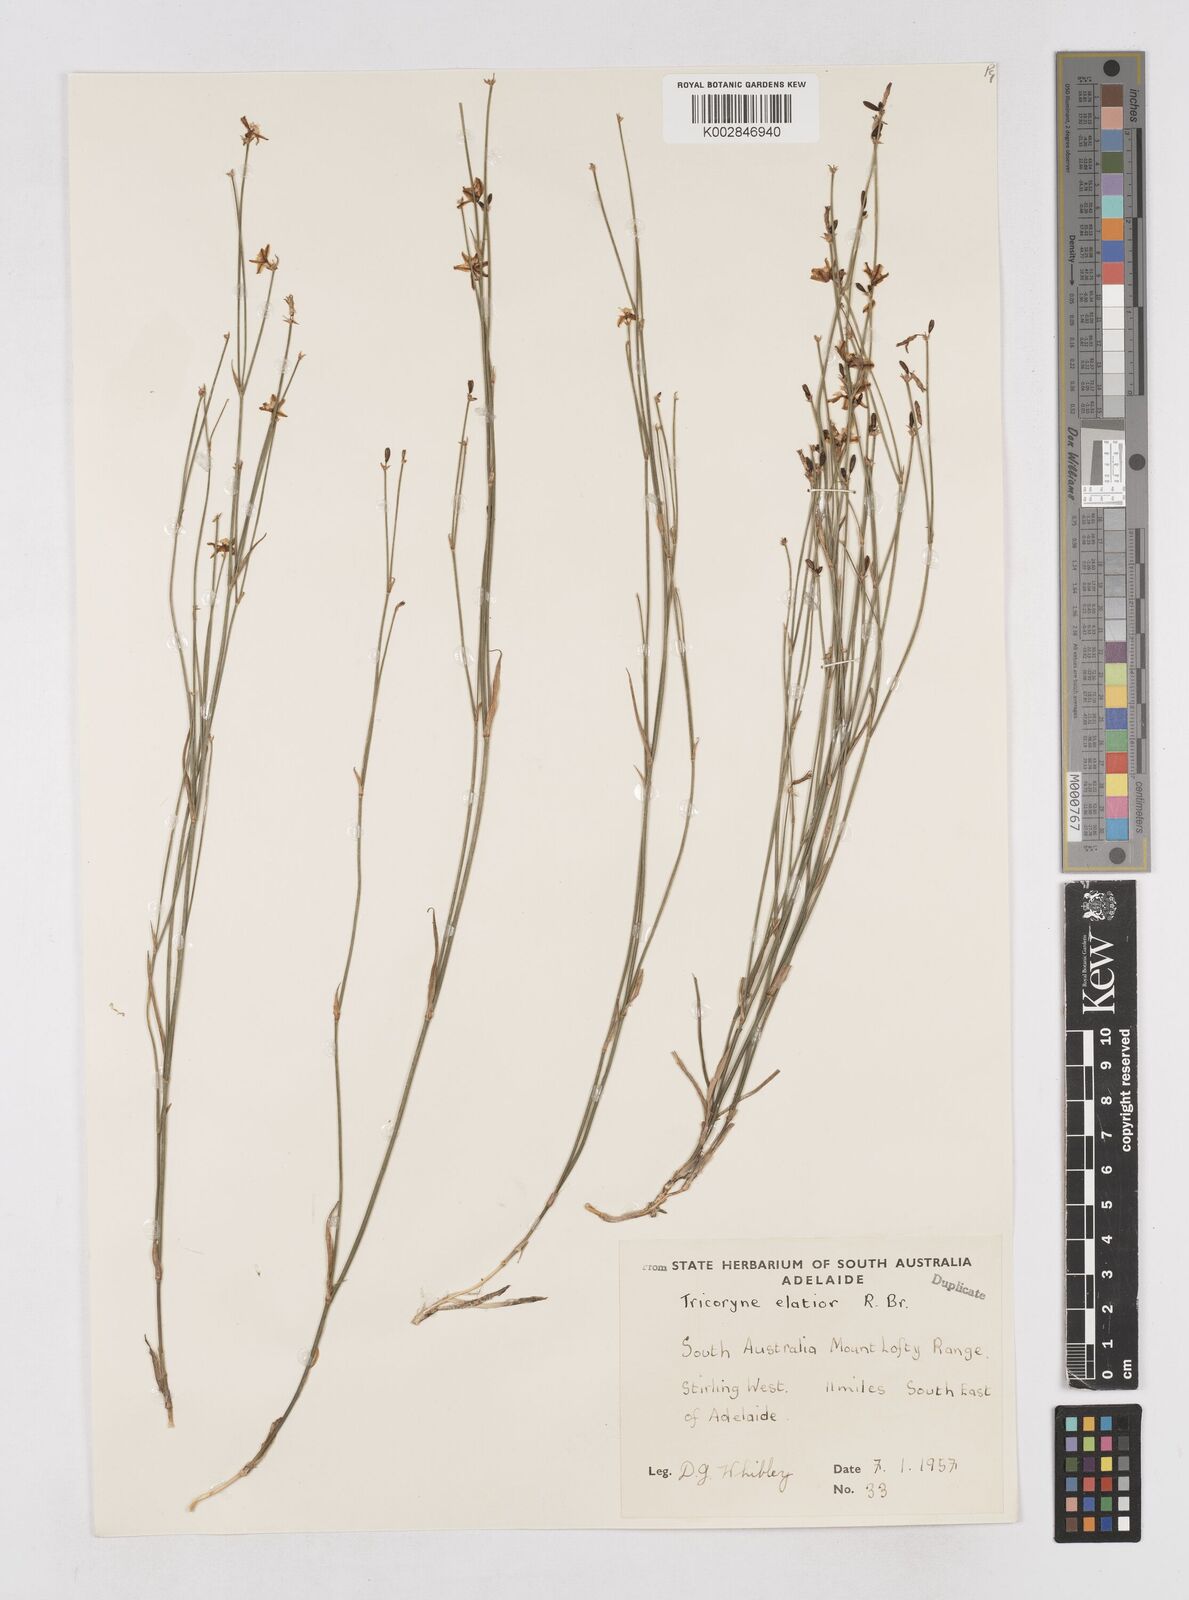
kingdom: Plantae
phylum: Tracheophyta
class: Liliopsida
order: Asparagales
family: Asphodelaceae
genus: Tricoryne
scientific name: Tricoryne elatior
